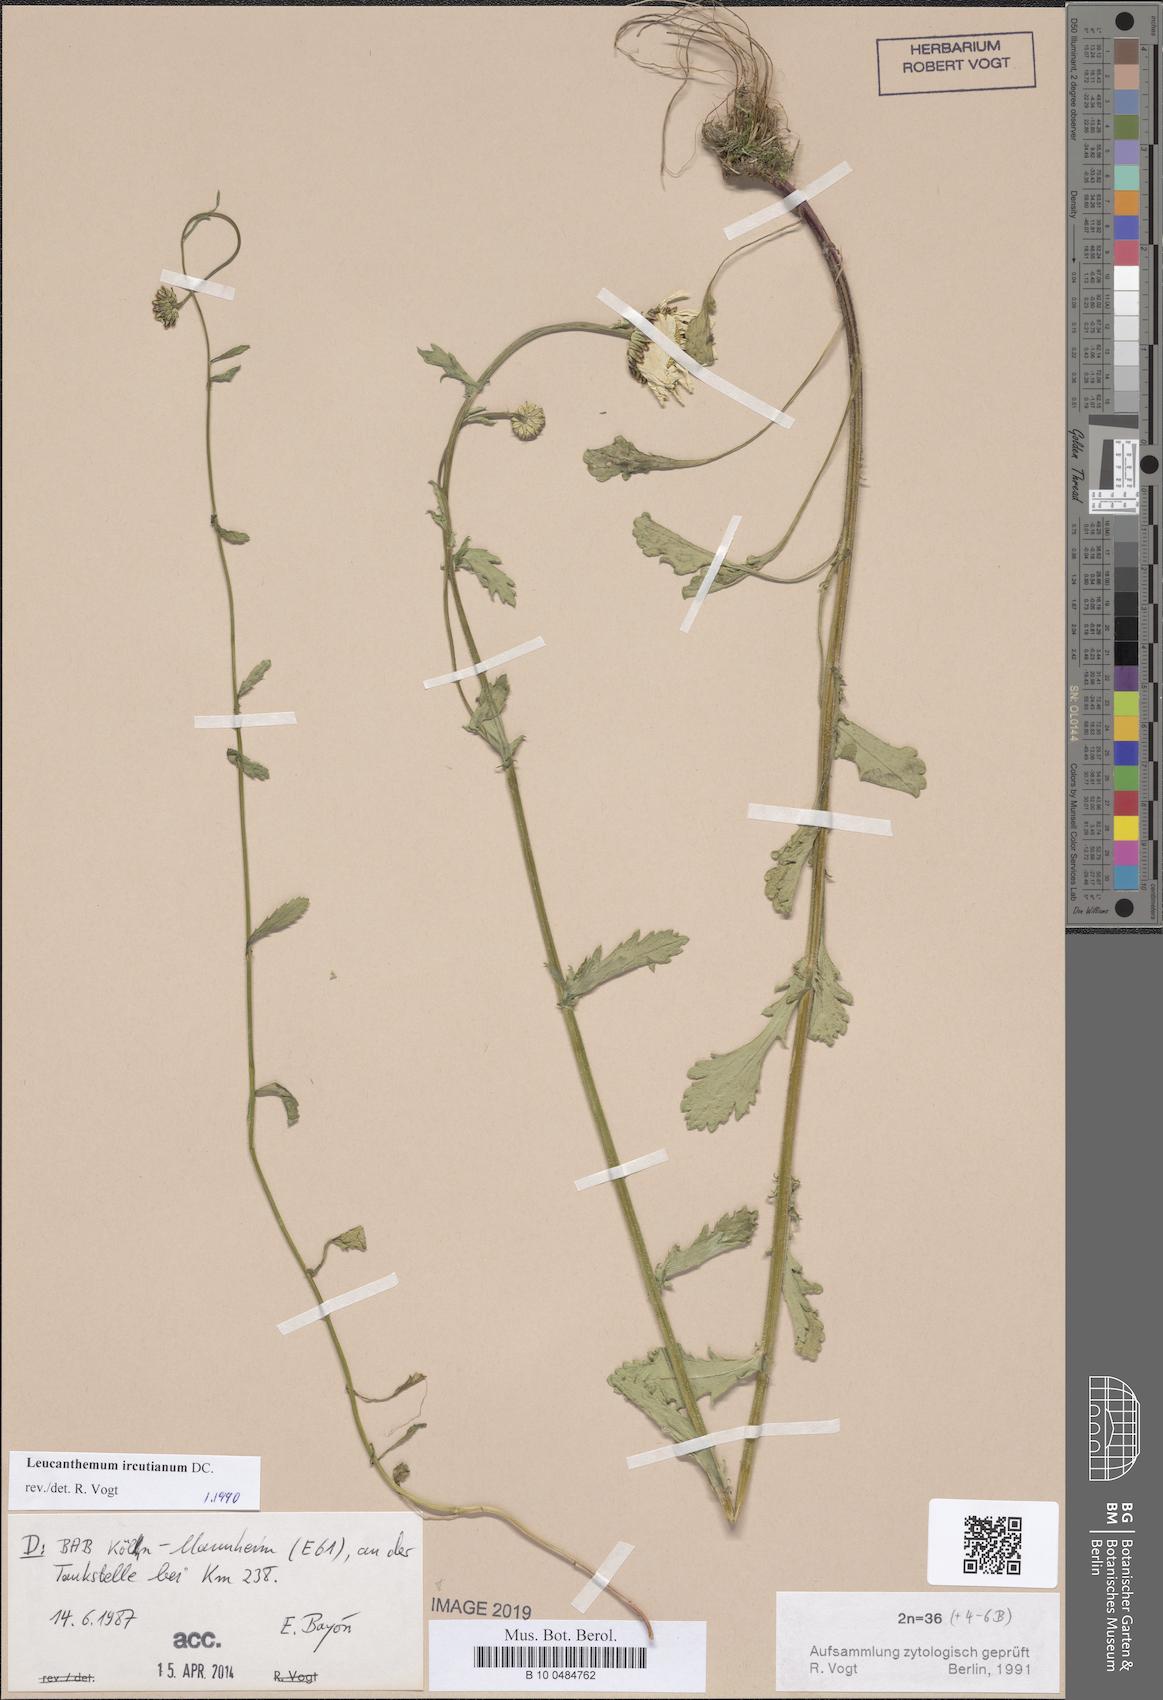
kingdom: Plantae
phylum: Tracheophyta
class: Magnoliopsida
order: Asterales
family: Asteraceae
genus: Leucanthemum
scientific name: Leucanthemum ircutianum
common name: Daisy
